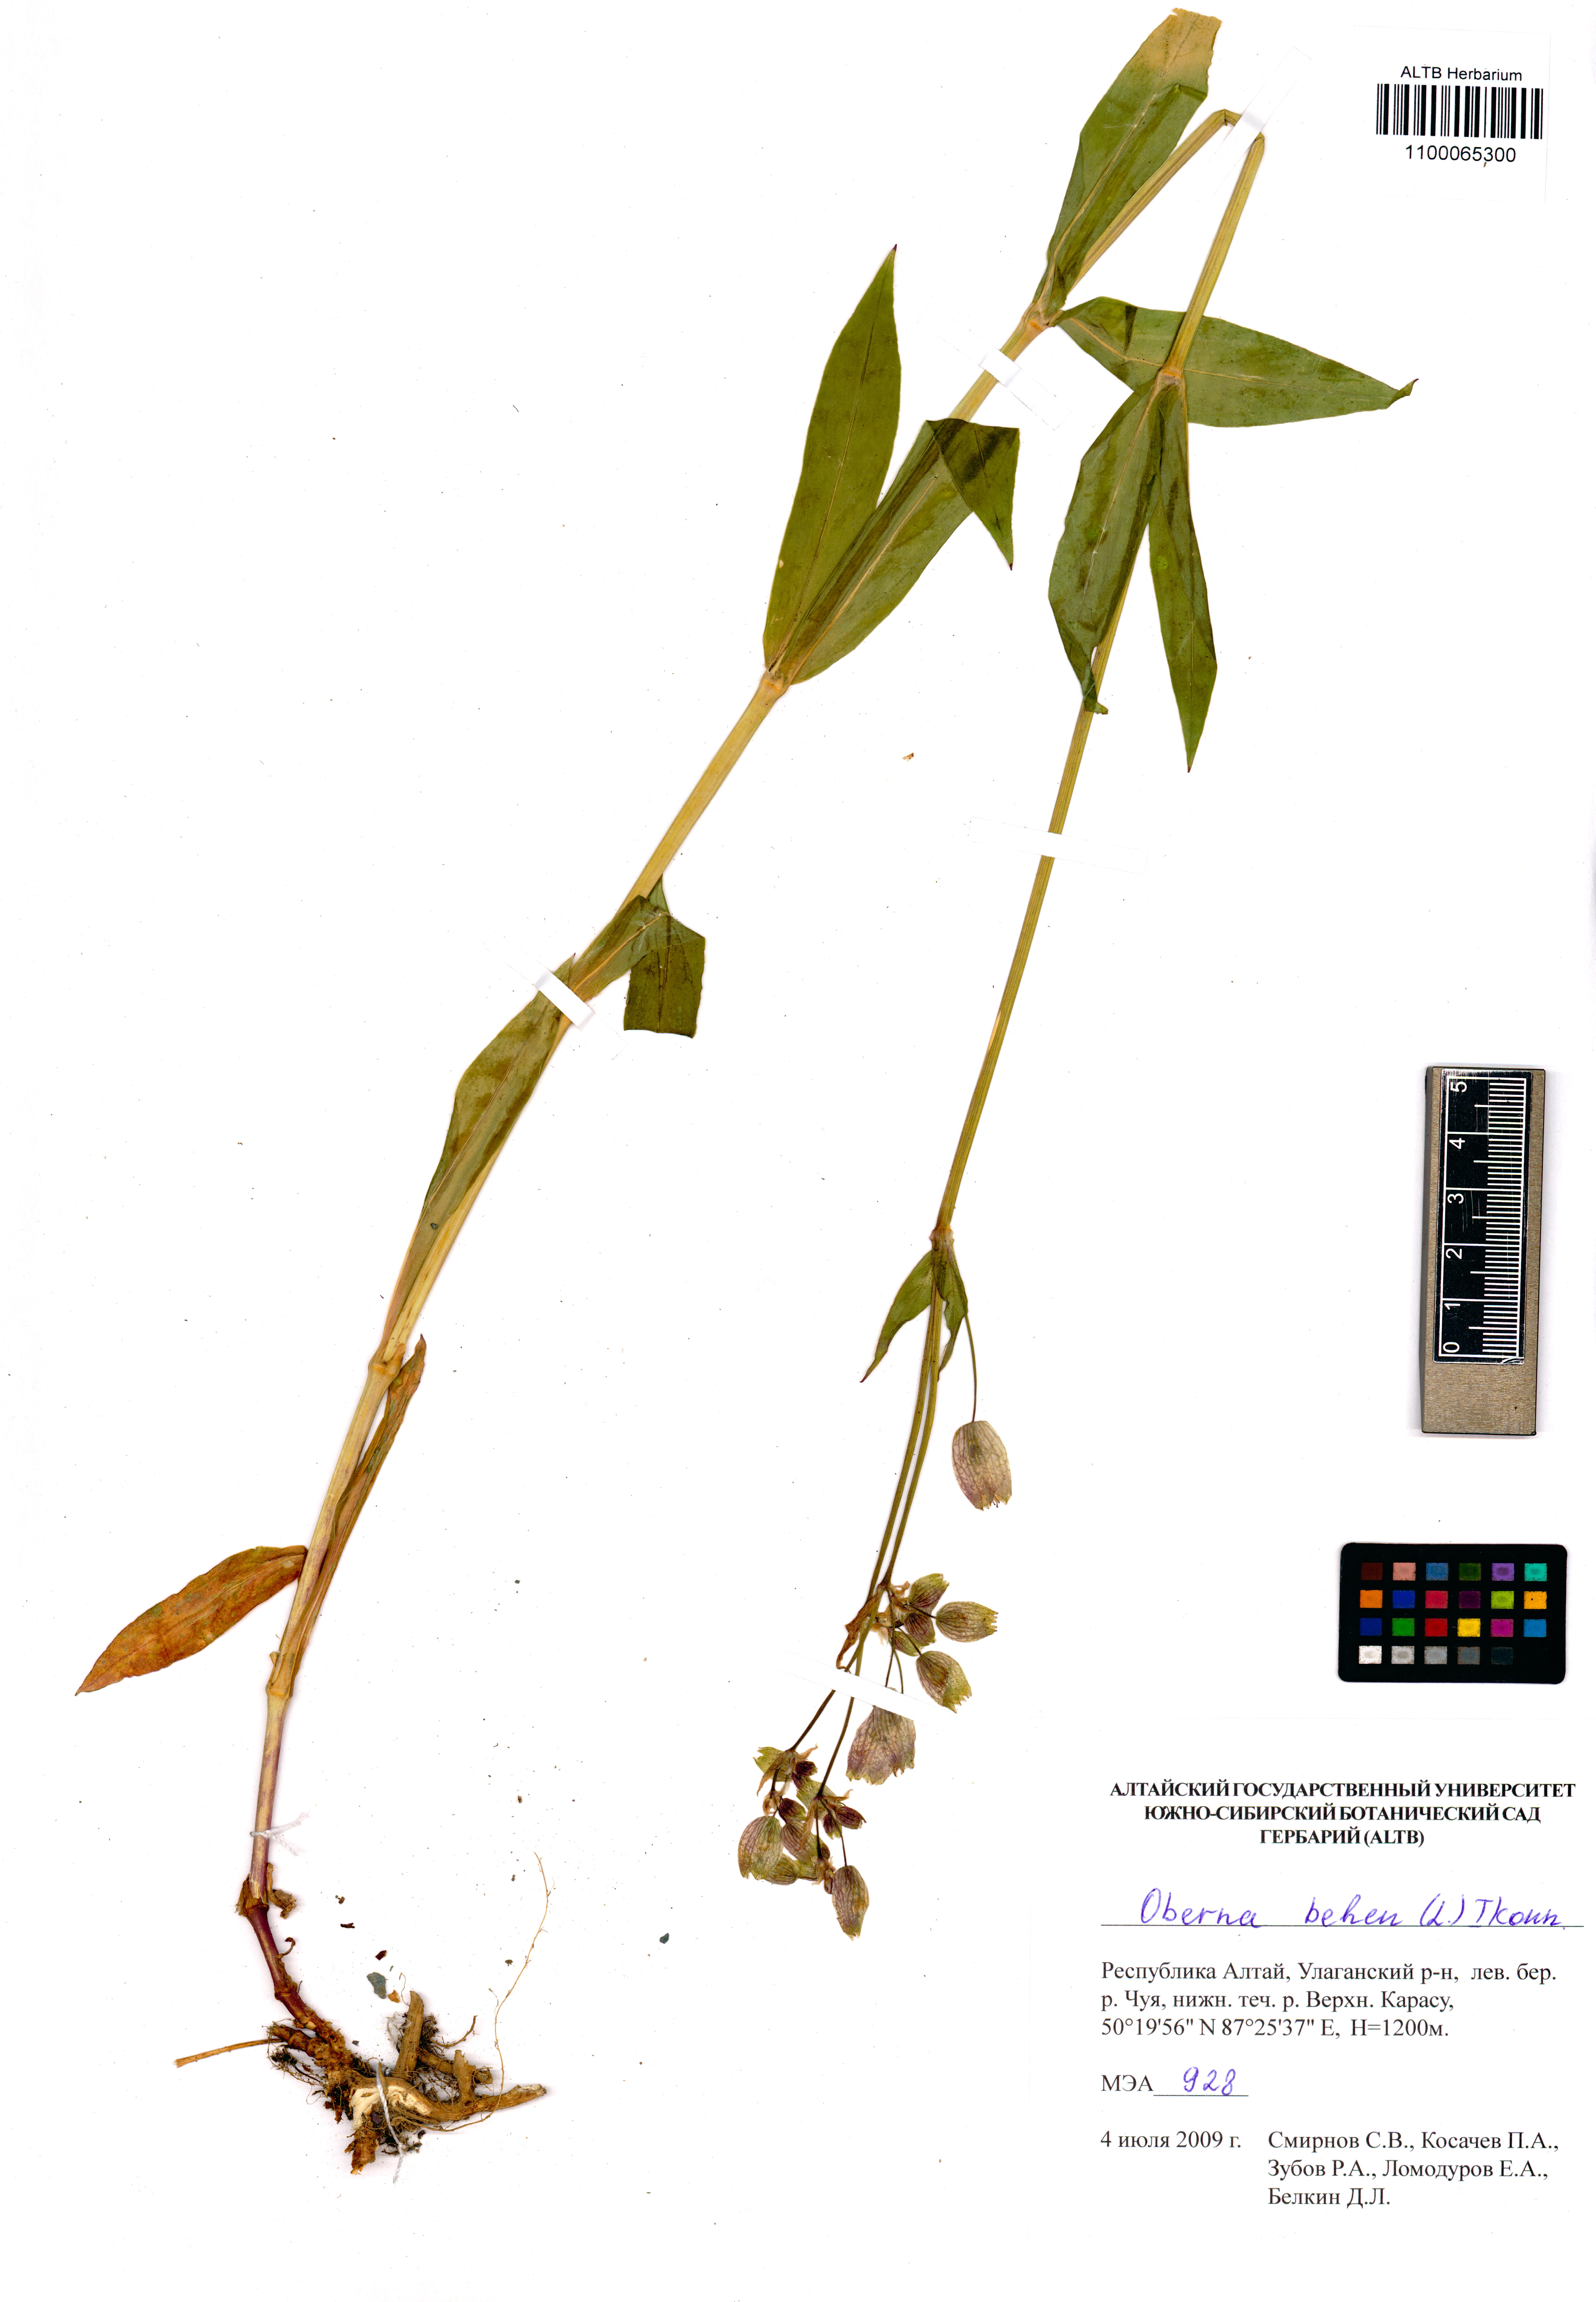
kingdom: Plantae
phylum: Tracheophyta
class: Magnoliopsida
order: Caryophyllales
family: Caryophyllaceae
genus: Silene
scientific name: Silene behen
